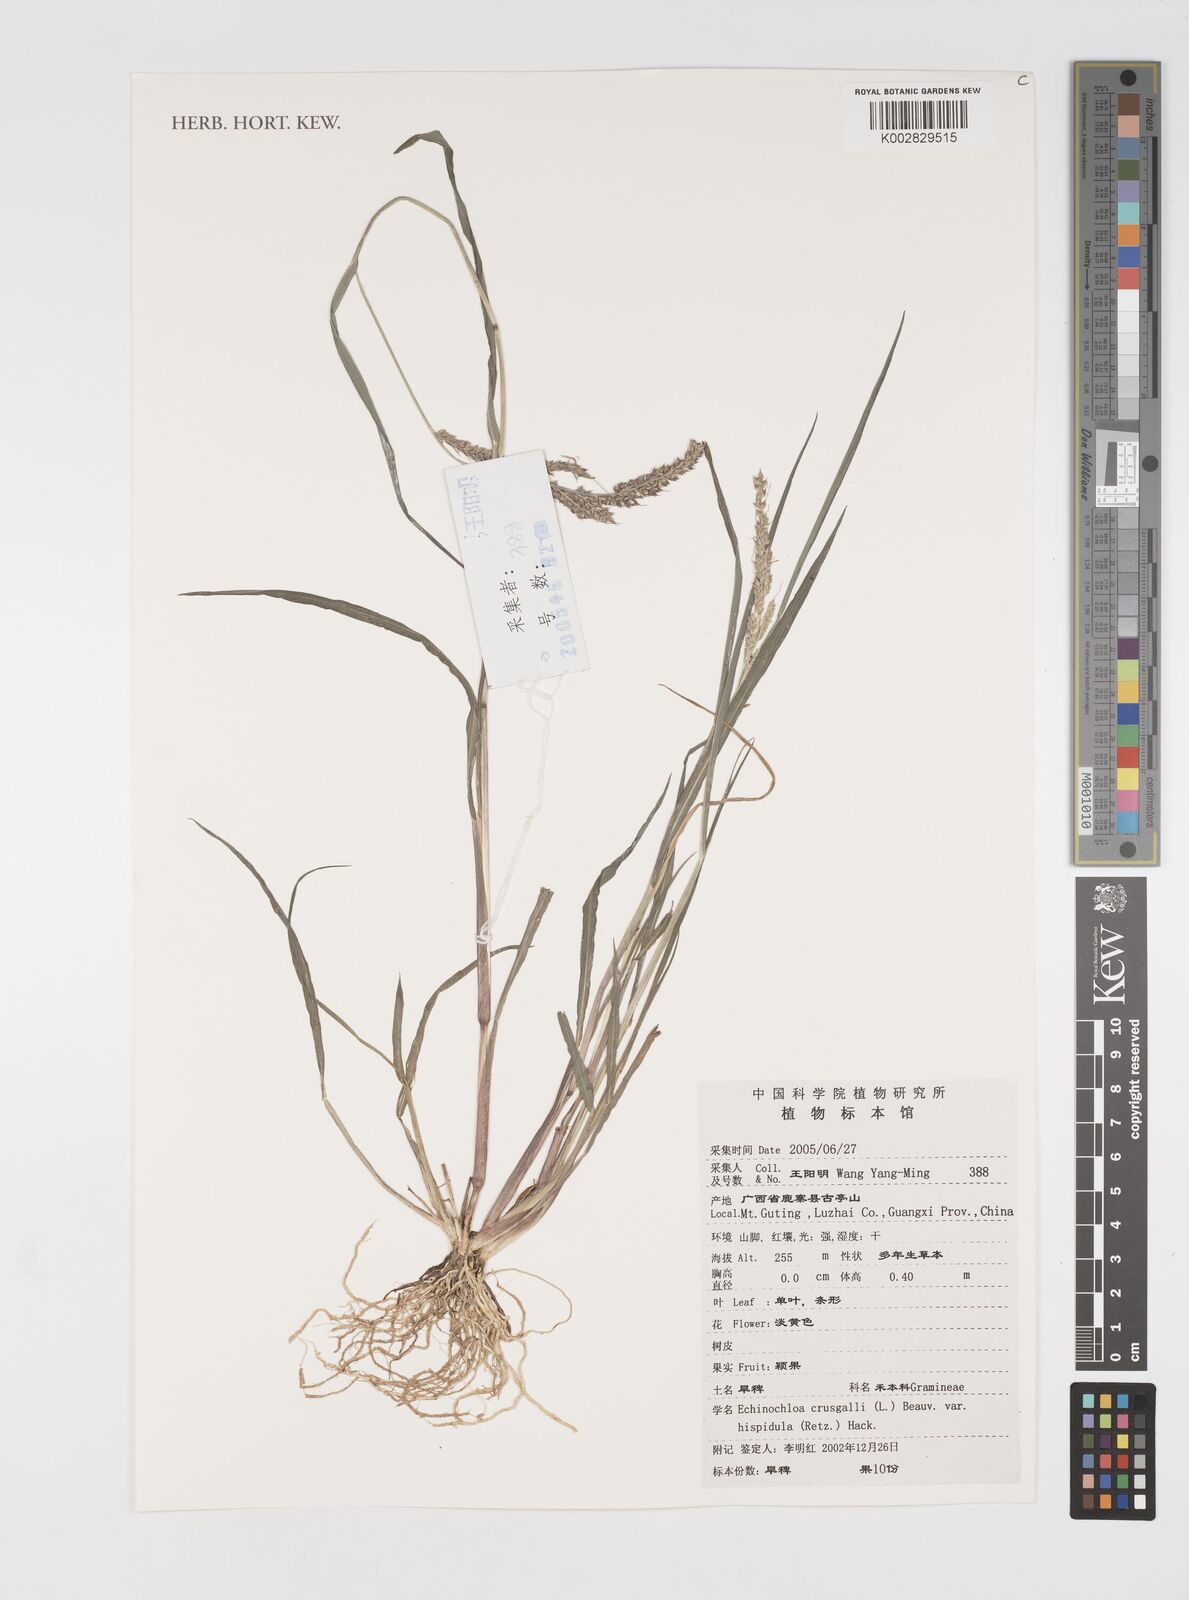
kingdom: Plantae
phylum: Tracheophyta
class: Liliopsida
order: Poales
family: Poaceae
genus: Echinochloa
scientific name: Echinochloa oryzoides
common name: Early water grass
